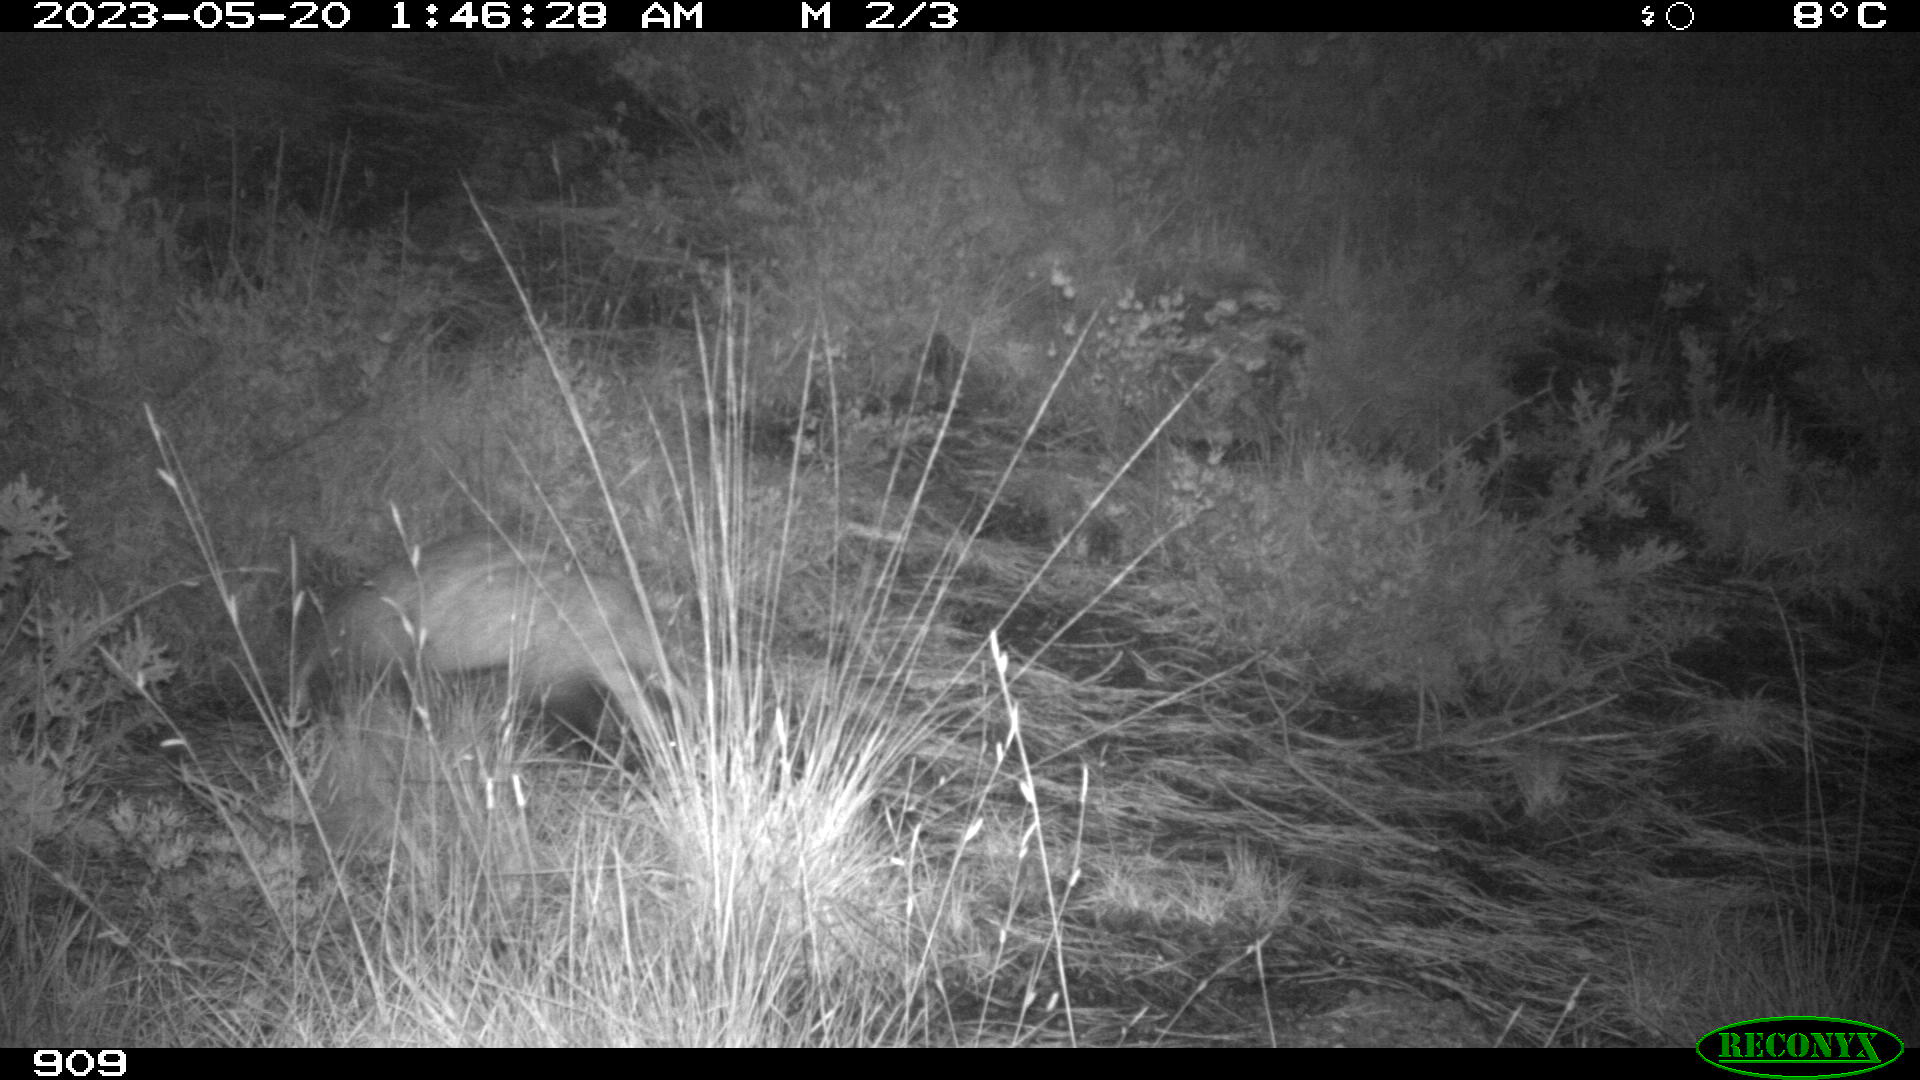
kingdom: Animalia
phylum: Chordata
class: Mammalia
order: Carnivora
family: Mustelidae
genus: Meles
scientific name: Meles meles
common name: Eurasian badger
